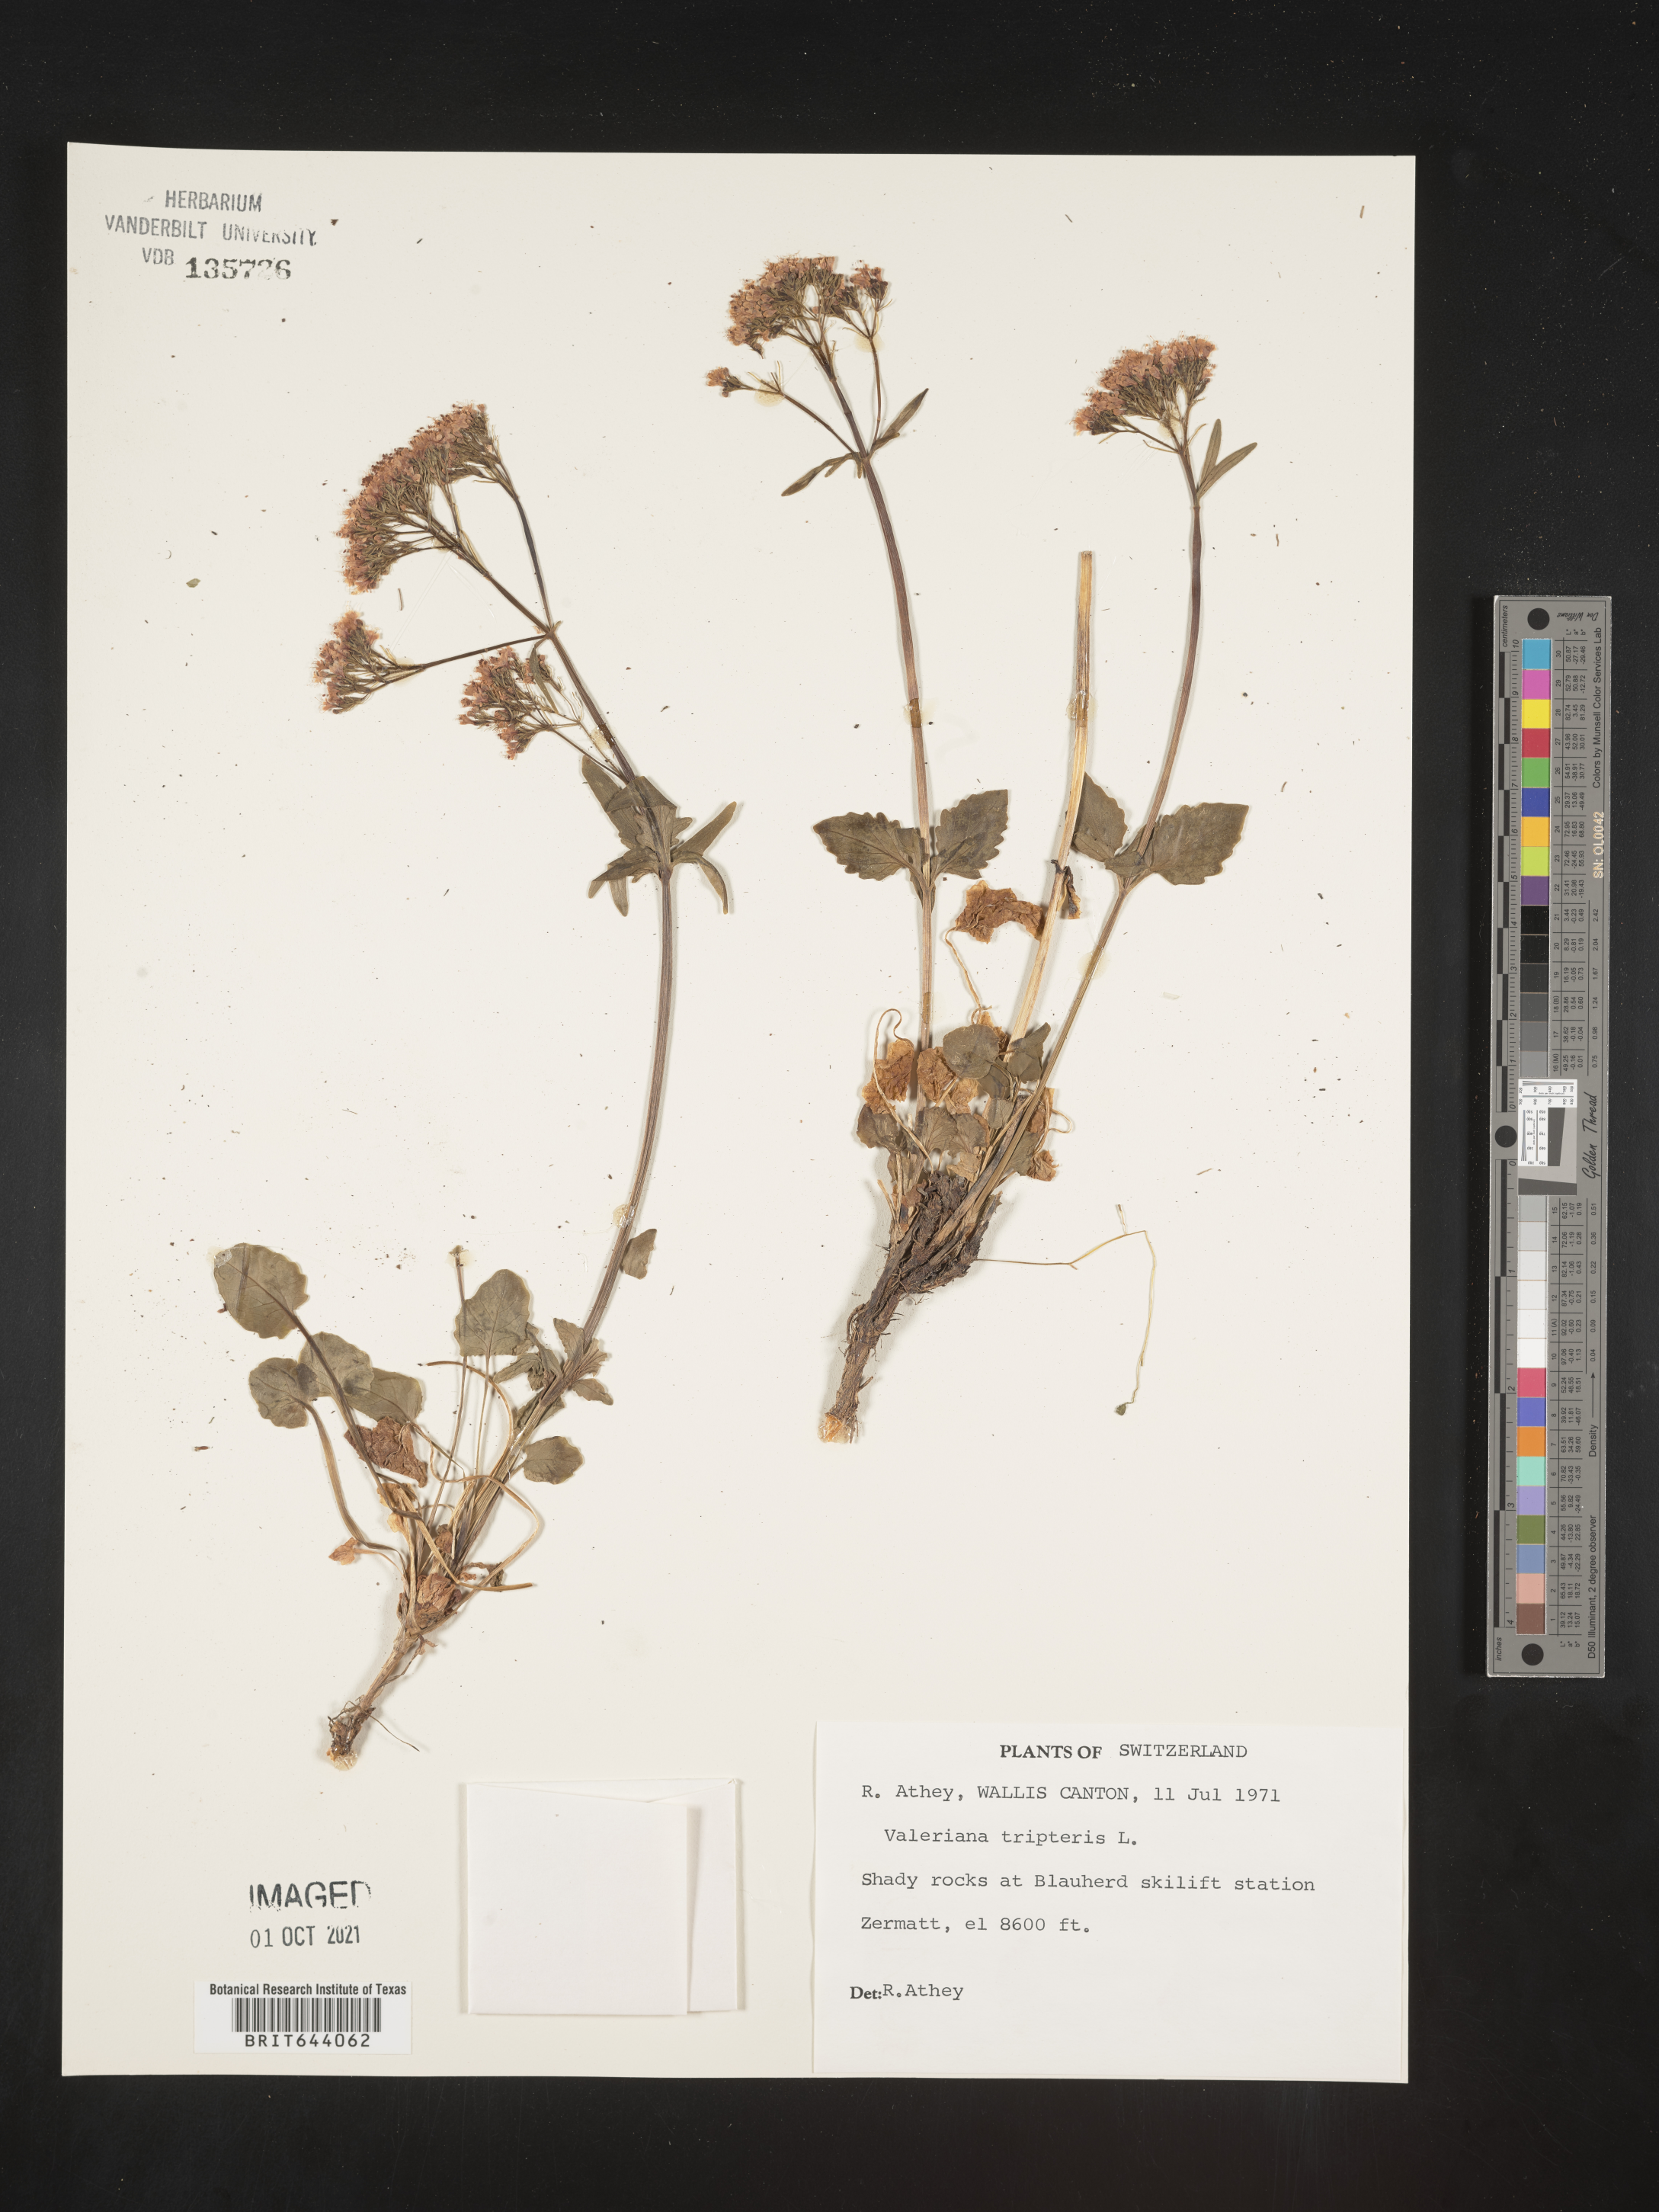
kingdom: Plantae
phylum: Tracheophyta
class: Magnoliopsida
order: Dipsacales
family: Caprifoliaceae
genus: Valeriana
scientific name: Valeriana tripteris
